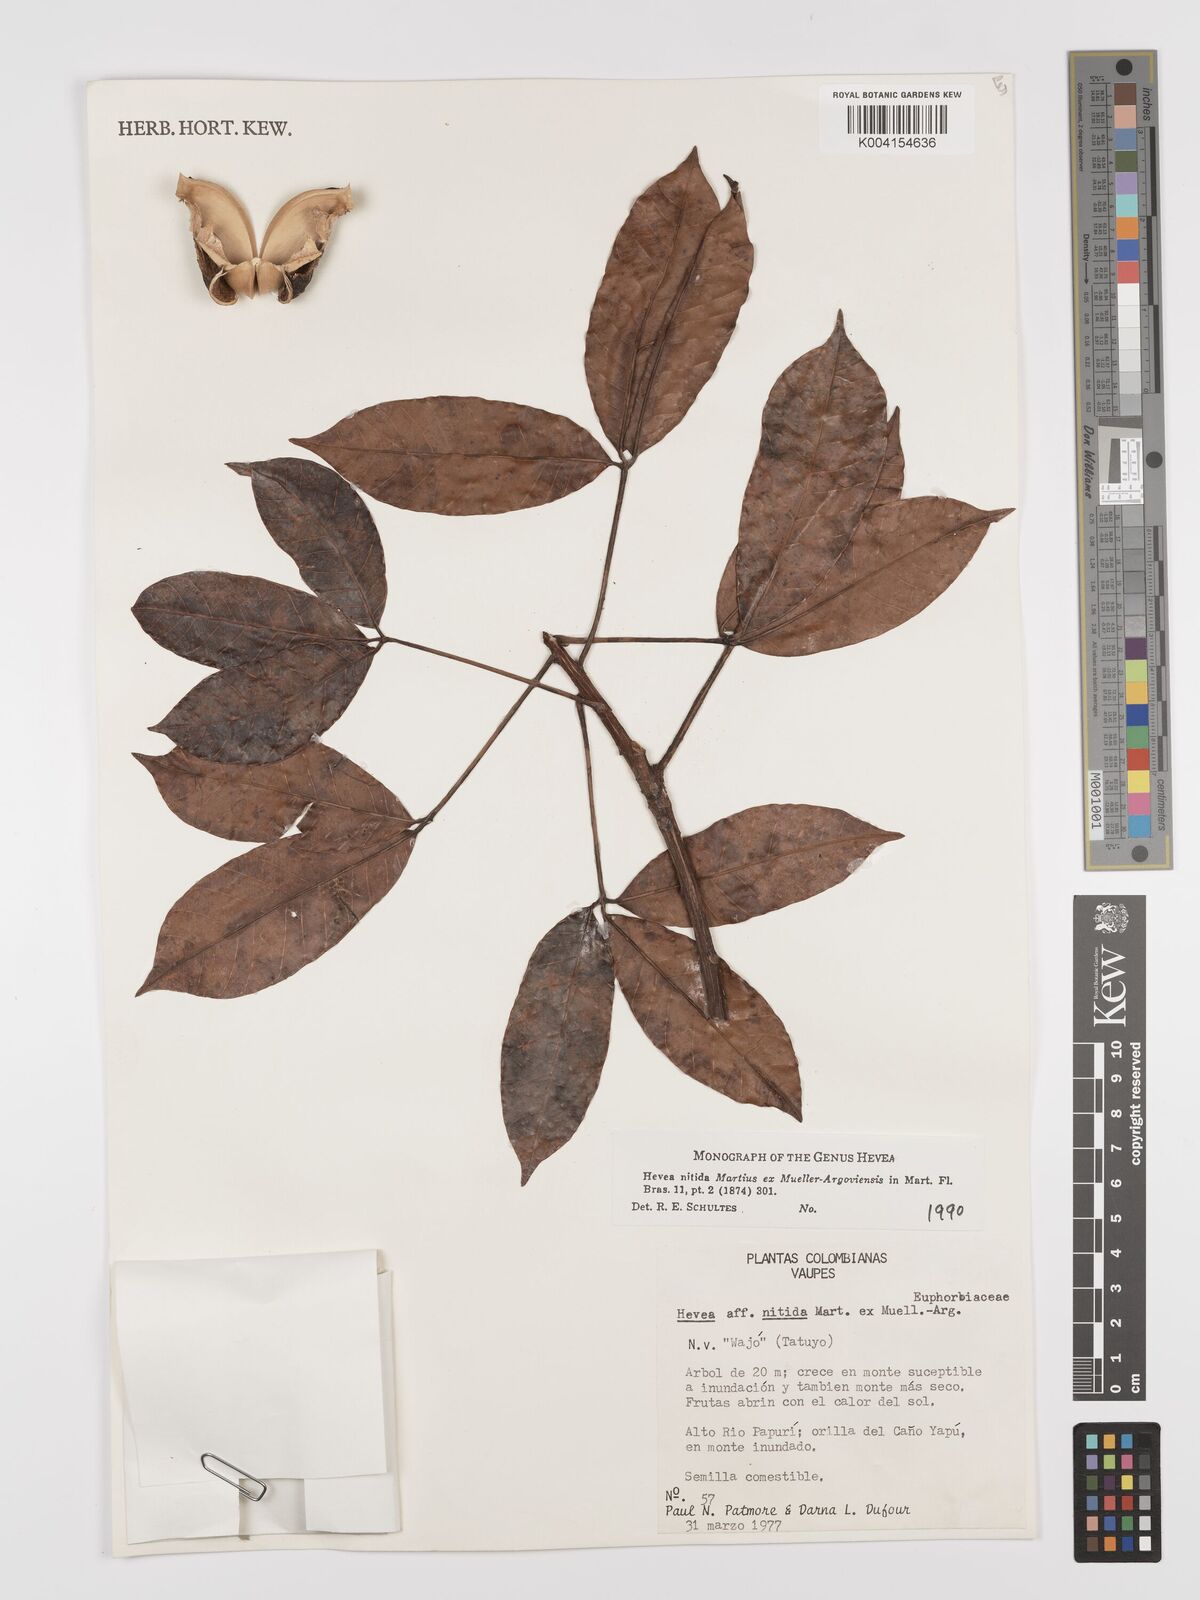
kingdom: Plantae
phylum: Tracheophyta
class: Magnoliopsida
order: Malpighiales
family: Euphorbiaceae
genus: Hevea
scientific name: Hevea nitida
